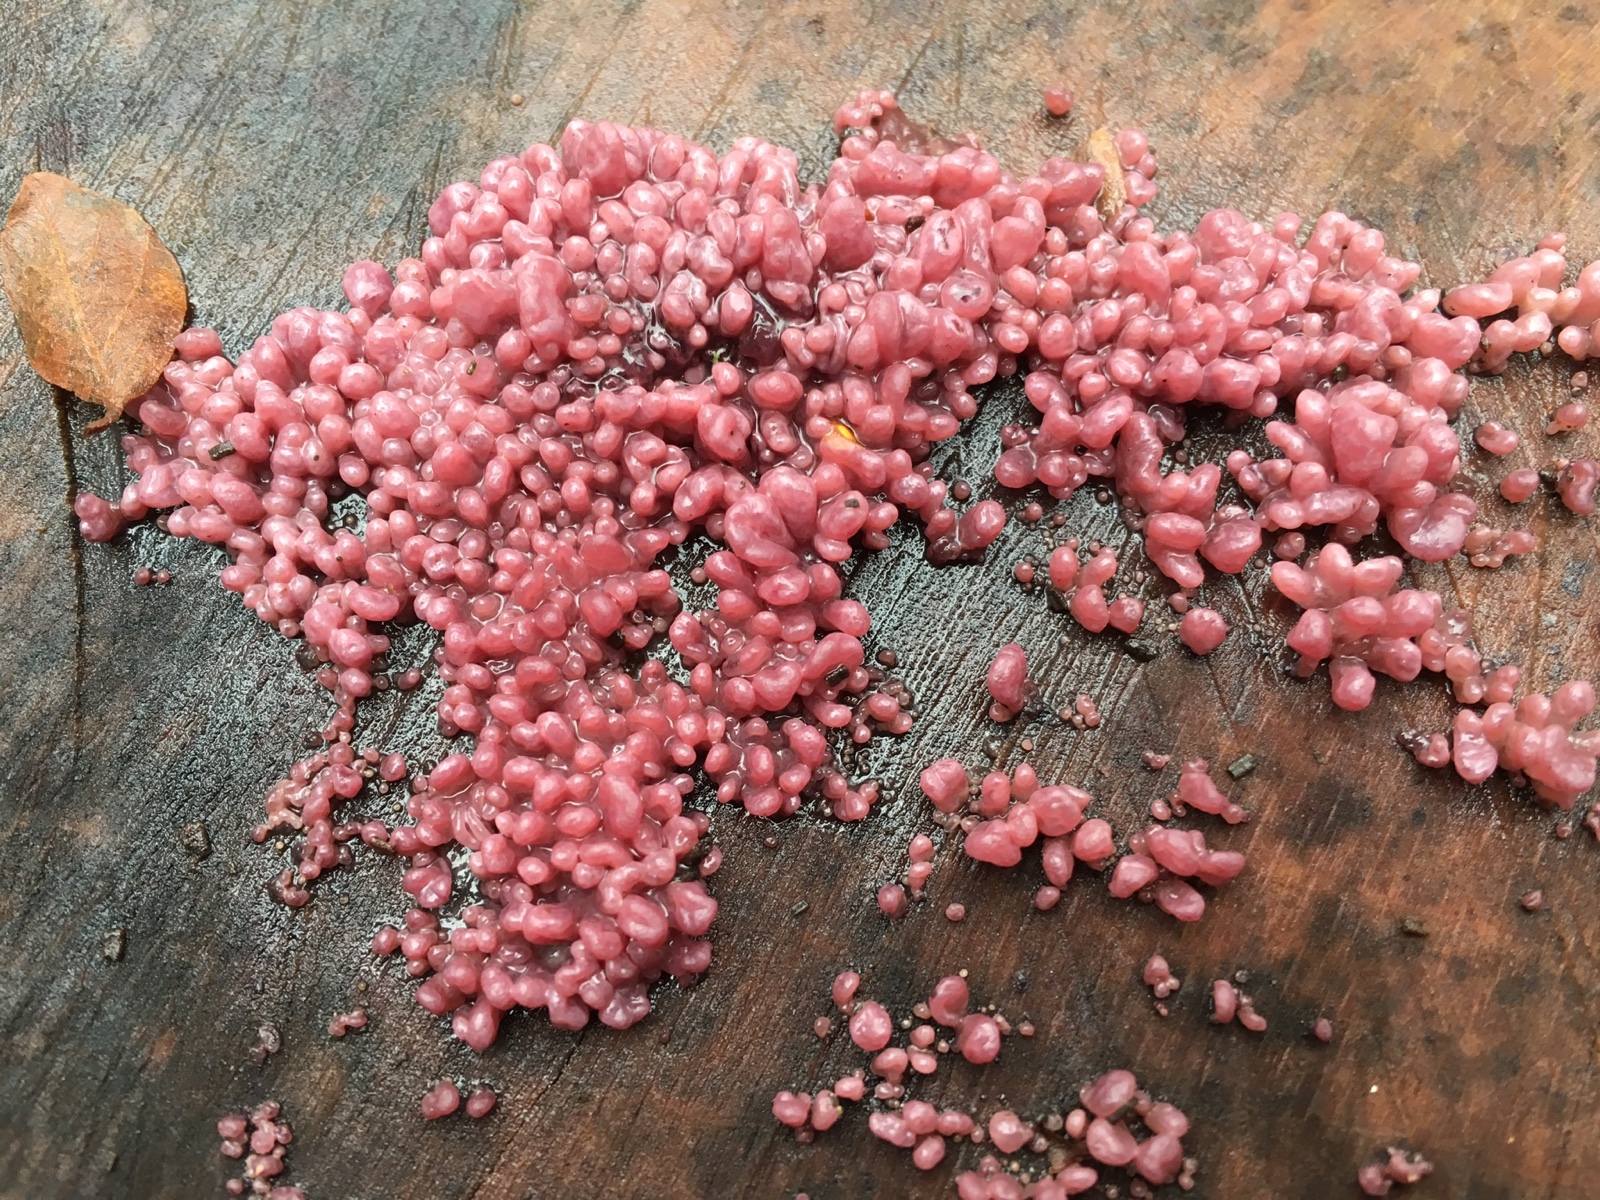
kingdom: Fungi
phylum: Ascomycota
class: Leotiomycetes
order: Helotiales
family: Gelatinodiscaceae
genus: Ascocoryne
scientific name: Ascocoryne sarcoides
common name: rødlilla sejskive
